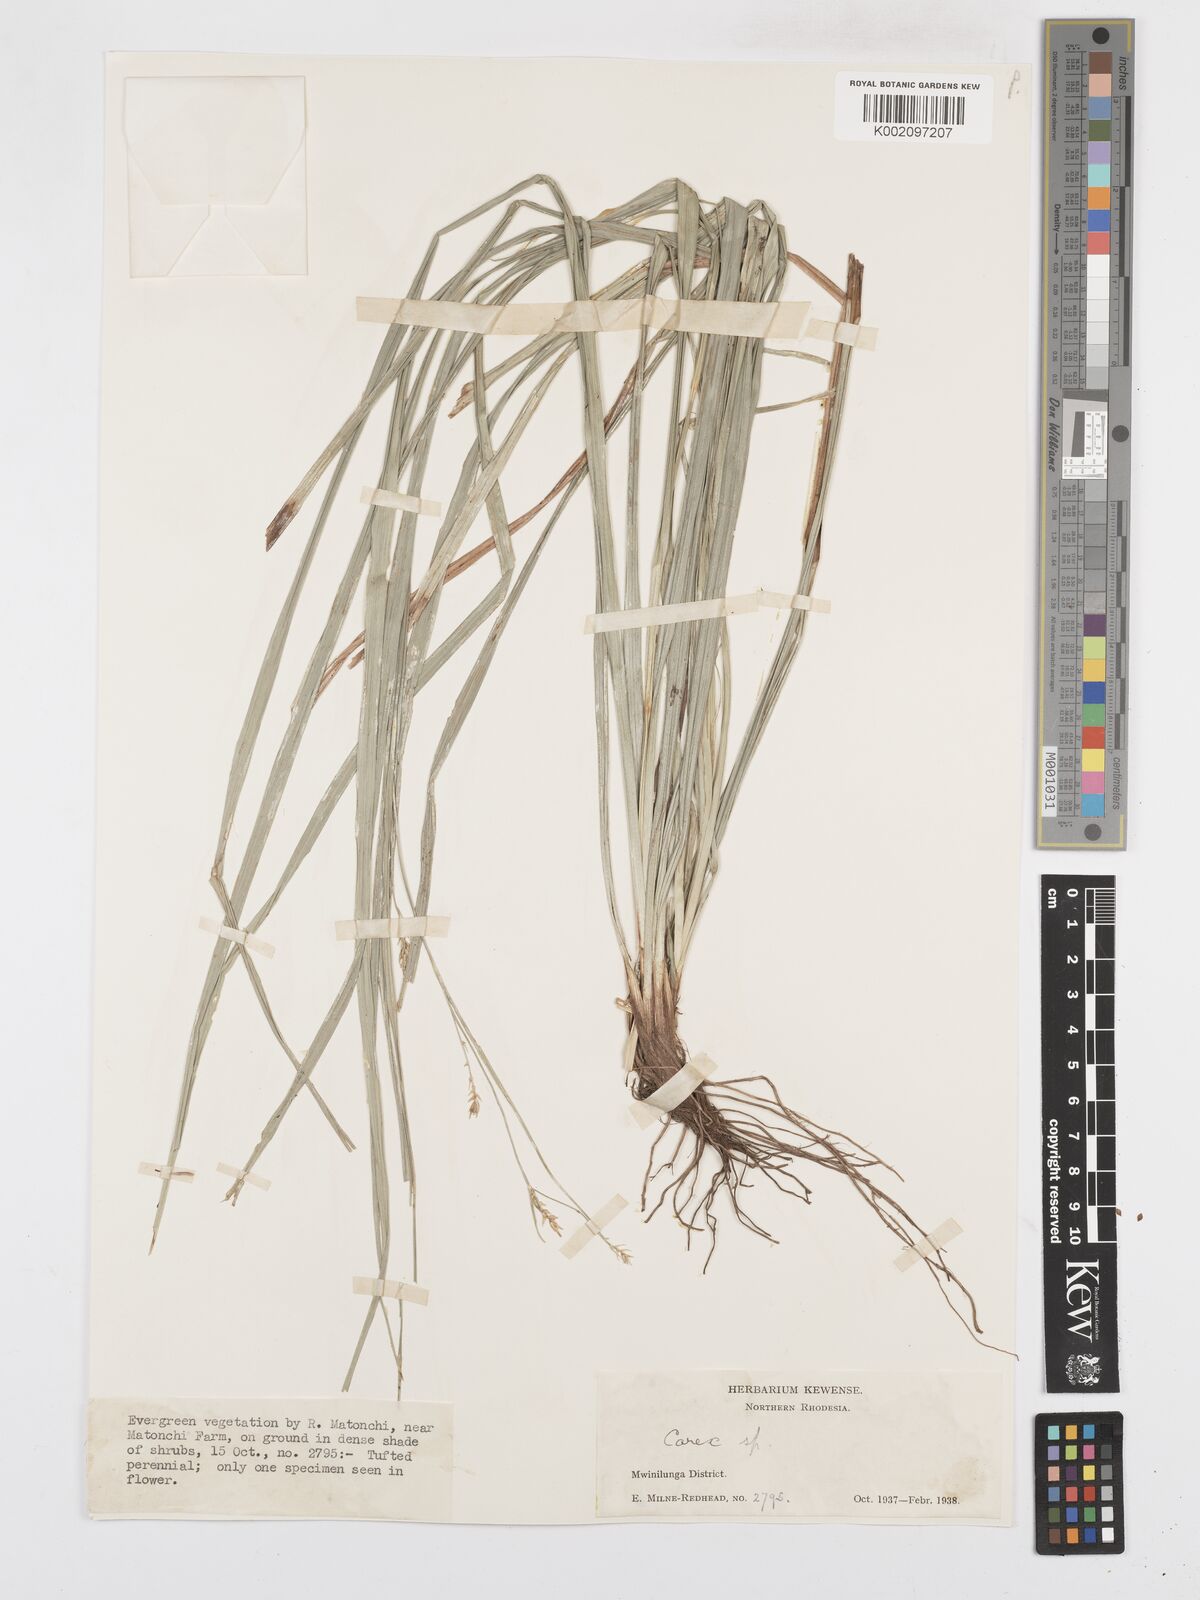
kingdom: Plantae
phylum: Tracheophyta
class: Liliopsida
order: Poales
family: Cyperaceae
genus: Carex
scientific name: Carex
